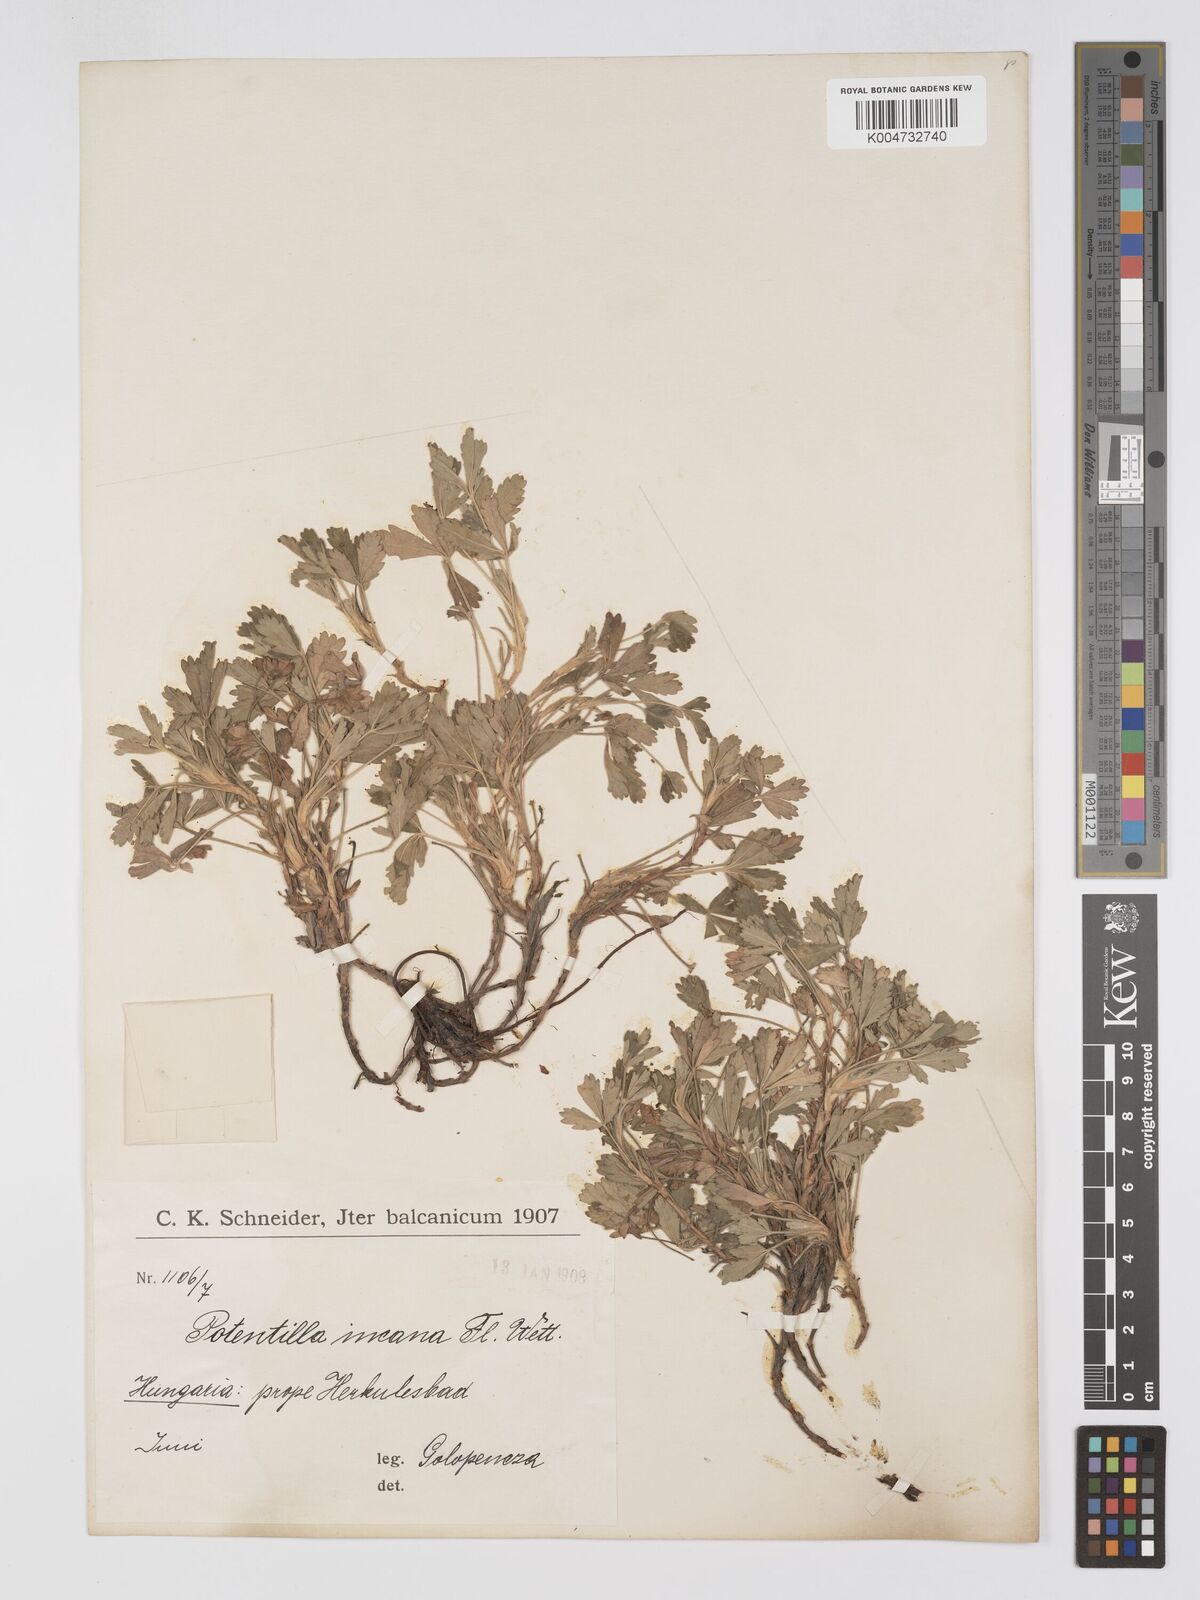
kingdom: Plantae
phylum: Tracheophyta
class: Magnoliopsida
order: Rosales
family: Rosaceae
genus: Potentilla
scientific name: Potentilla cinerea
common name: Ashy cinquefoil
